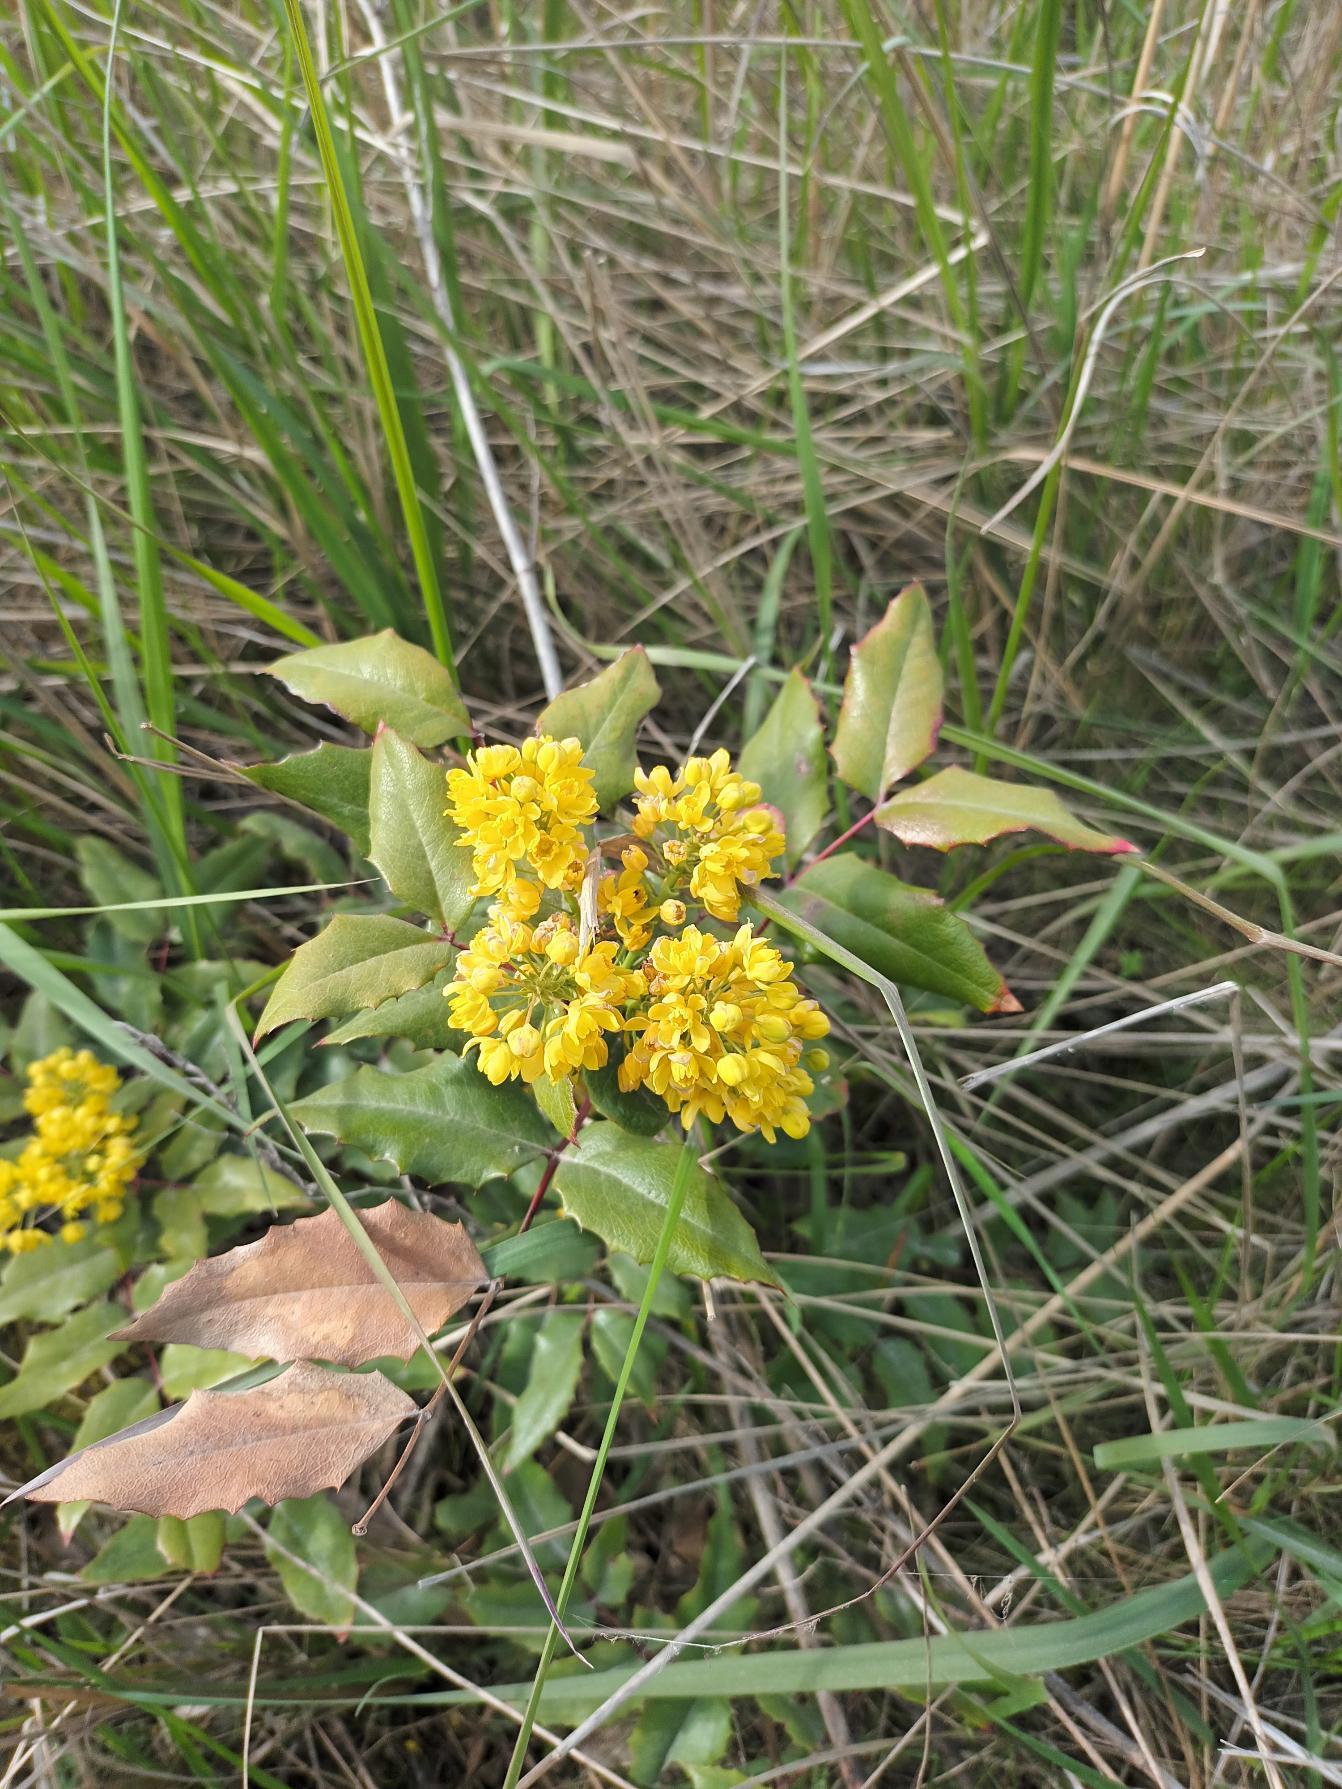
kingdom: Plantae
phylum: Tracheophyta
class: Magnoliopsida
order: Ranunculales
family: Berberidaceae
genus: Mahonia
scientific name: Mahonia aquifolium
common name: Almindelig mahonie
